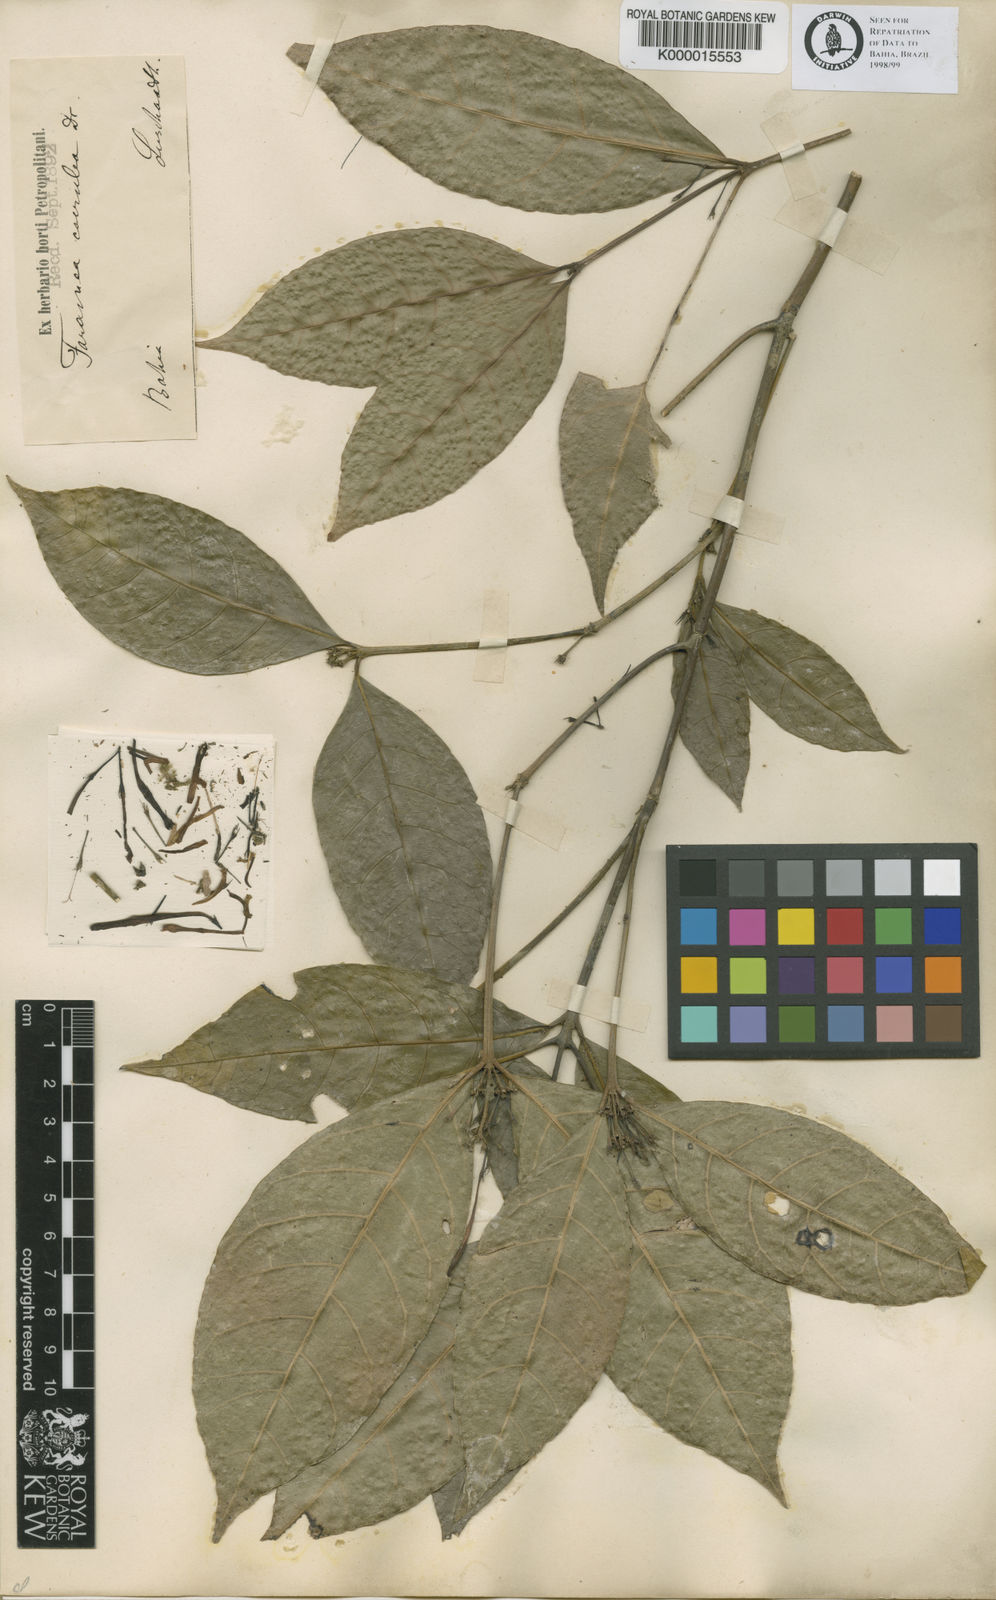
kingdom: Plantae
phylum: Tracheophyta
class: Magnoliopsida
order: Gentianales
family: Rubiaceae
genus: Faramea
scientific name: Faramea coerulea
